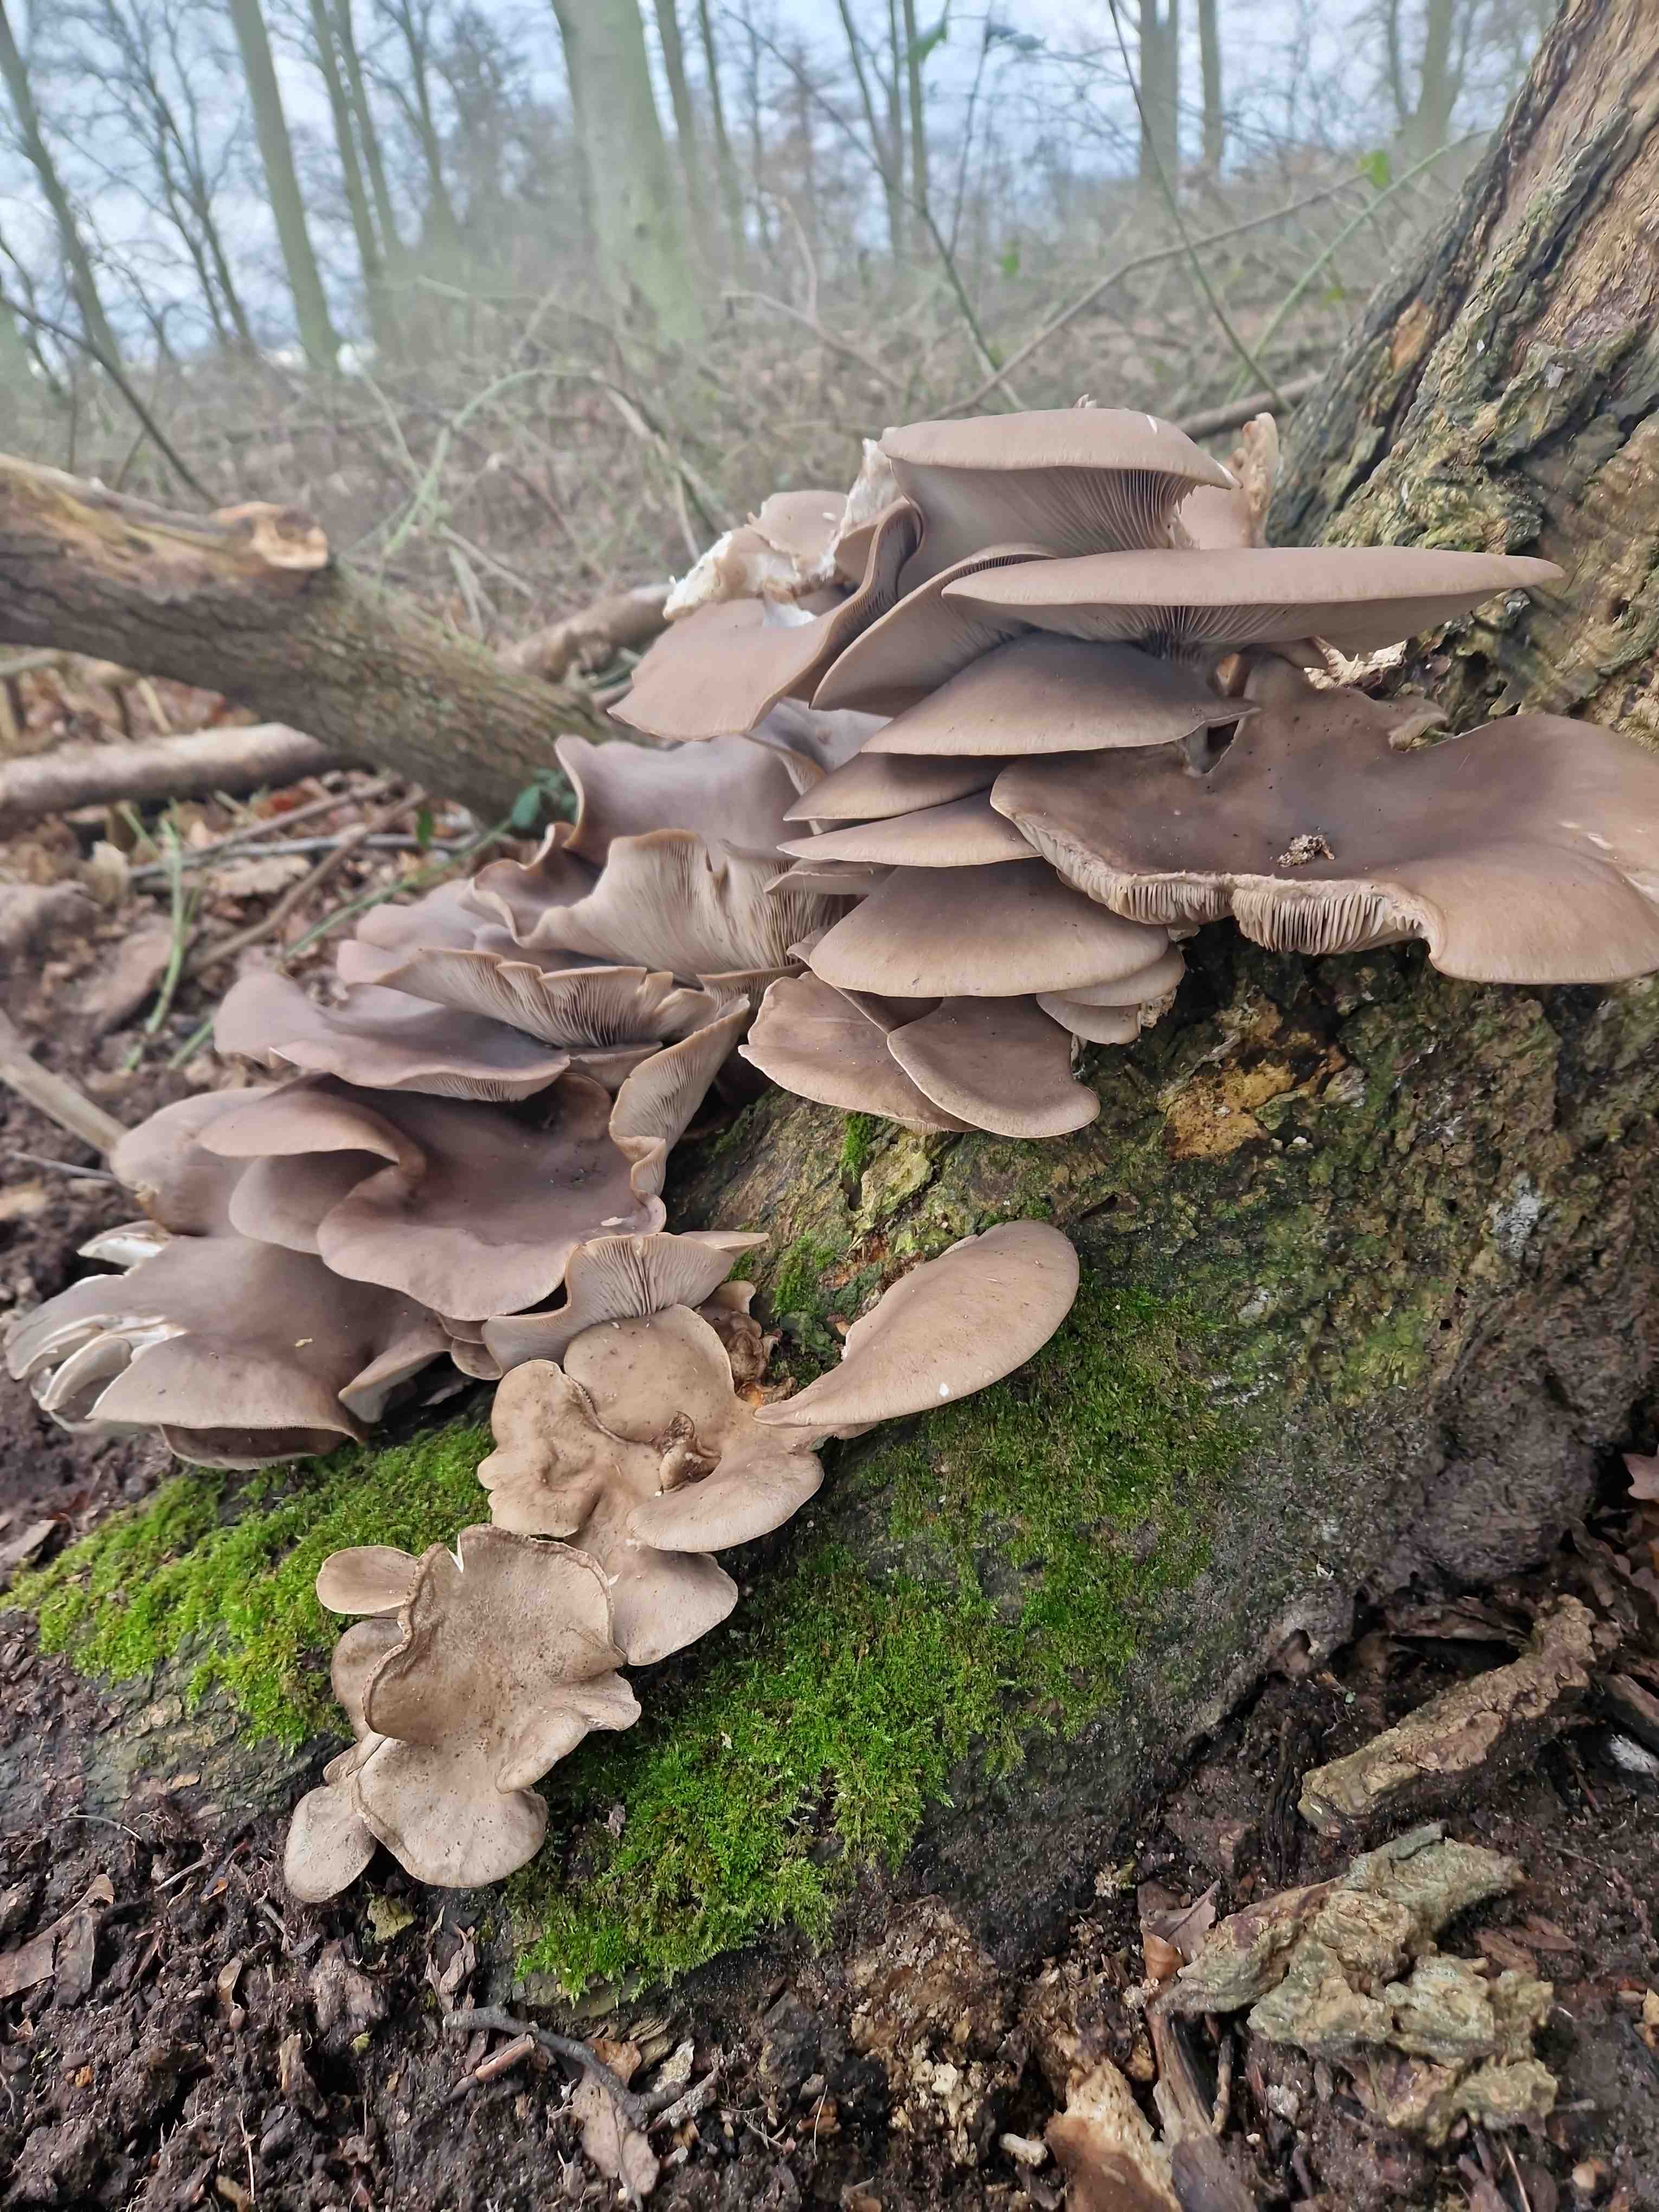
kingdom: Fungi
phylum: Basidiomycota
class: Agaricomycetes
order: Agaricales
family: Pleurotaceae
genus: Pleurotus
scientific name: Pleurotus ostreatus
